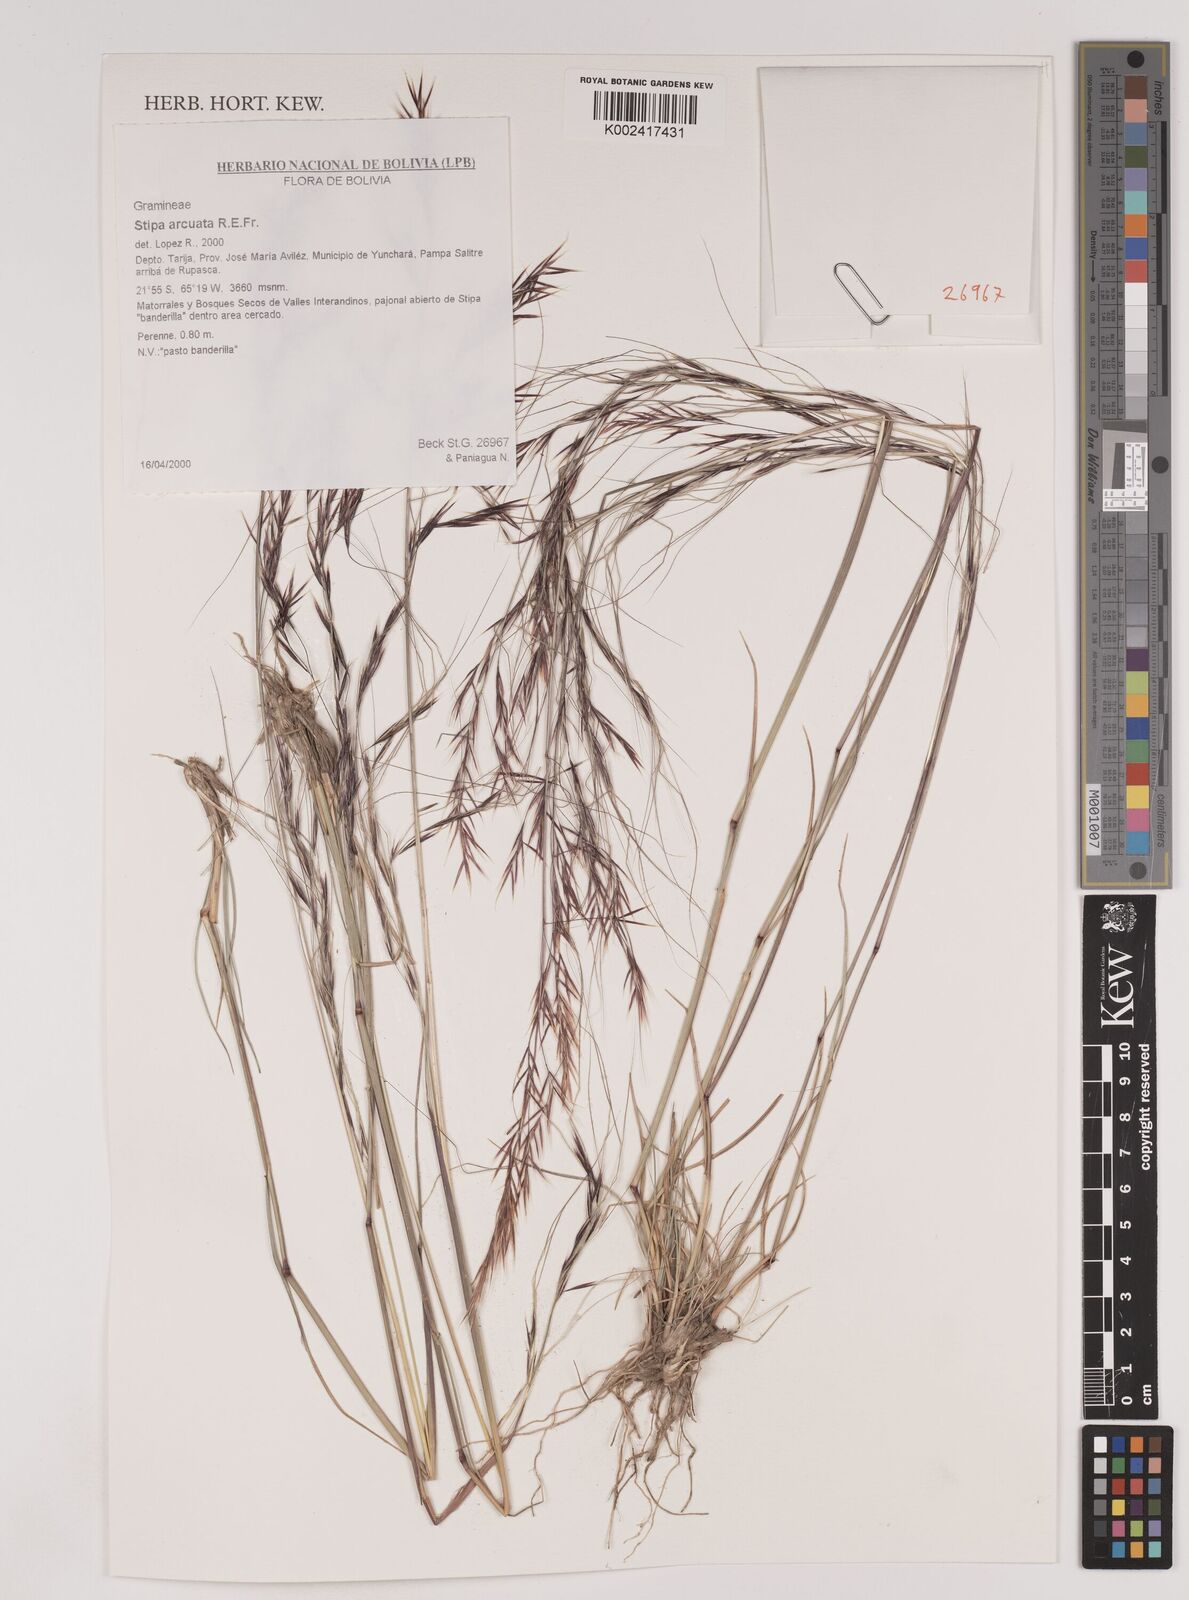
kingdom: Plantae
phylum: Tracheophyta
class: Liliopsida
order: Poales
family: Poaceae
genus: Nassella
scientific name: Nassella arcuata
